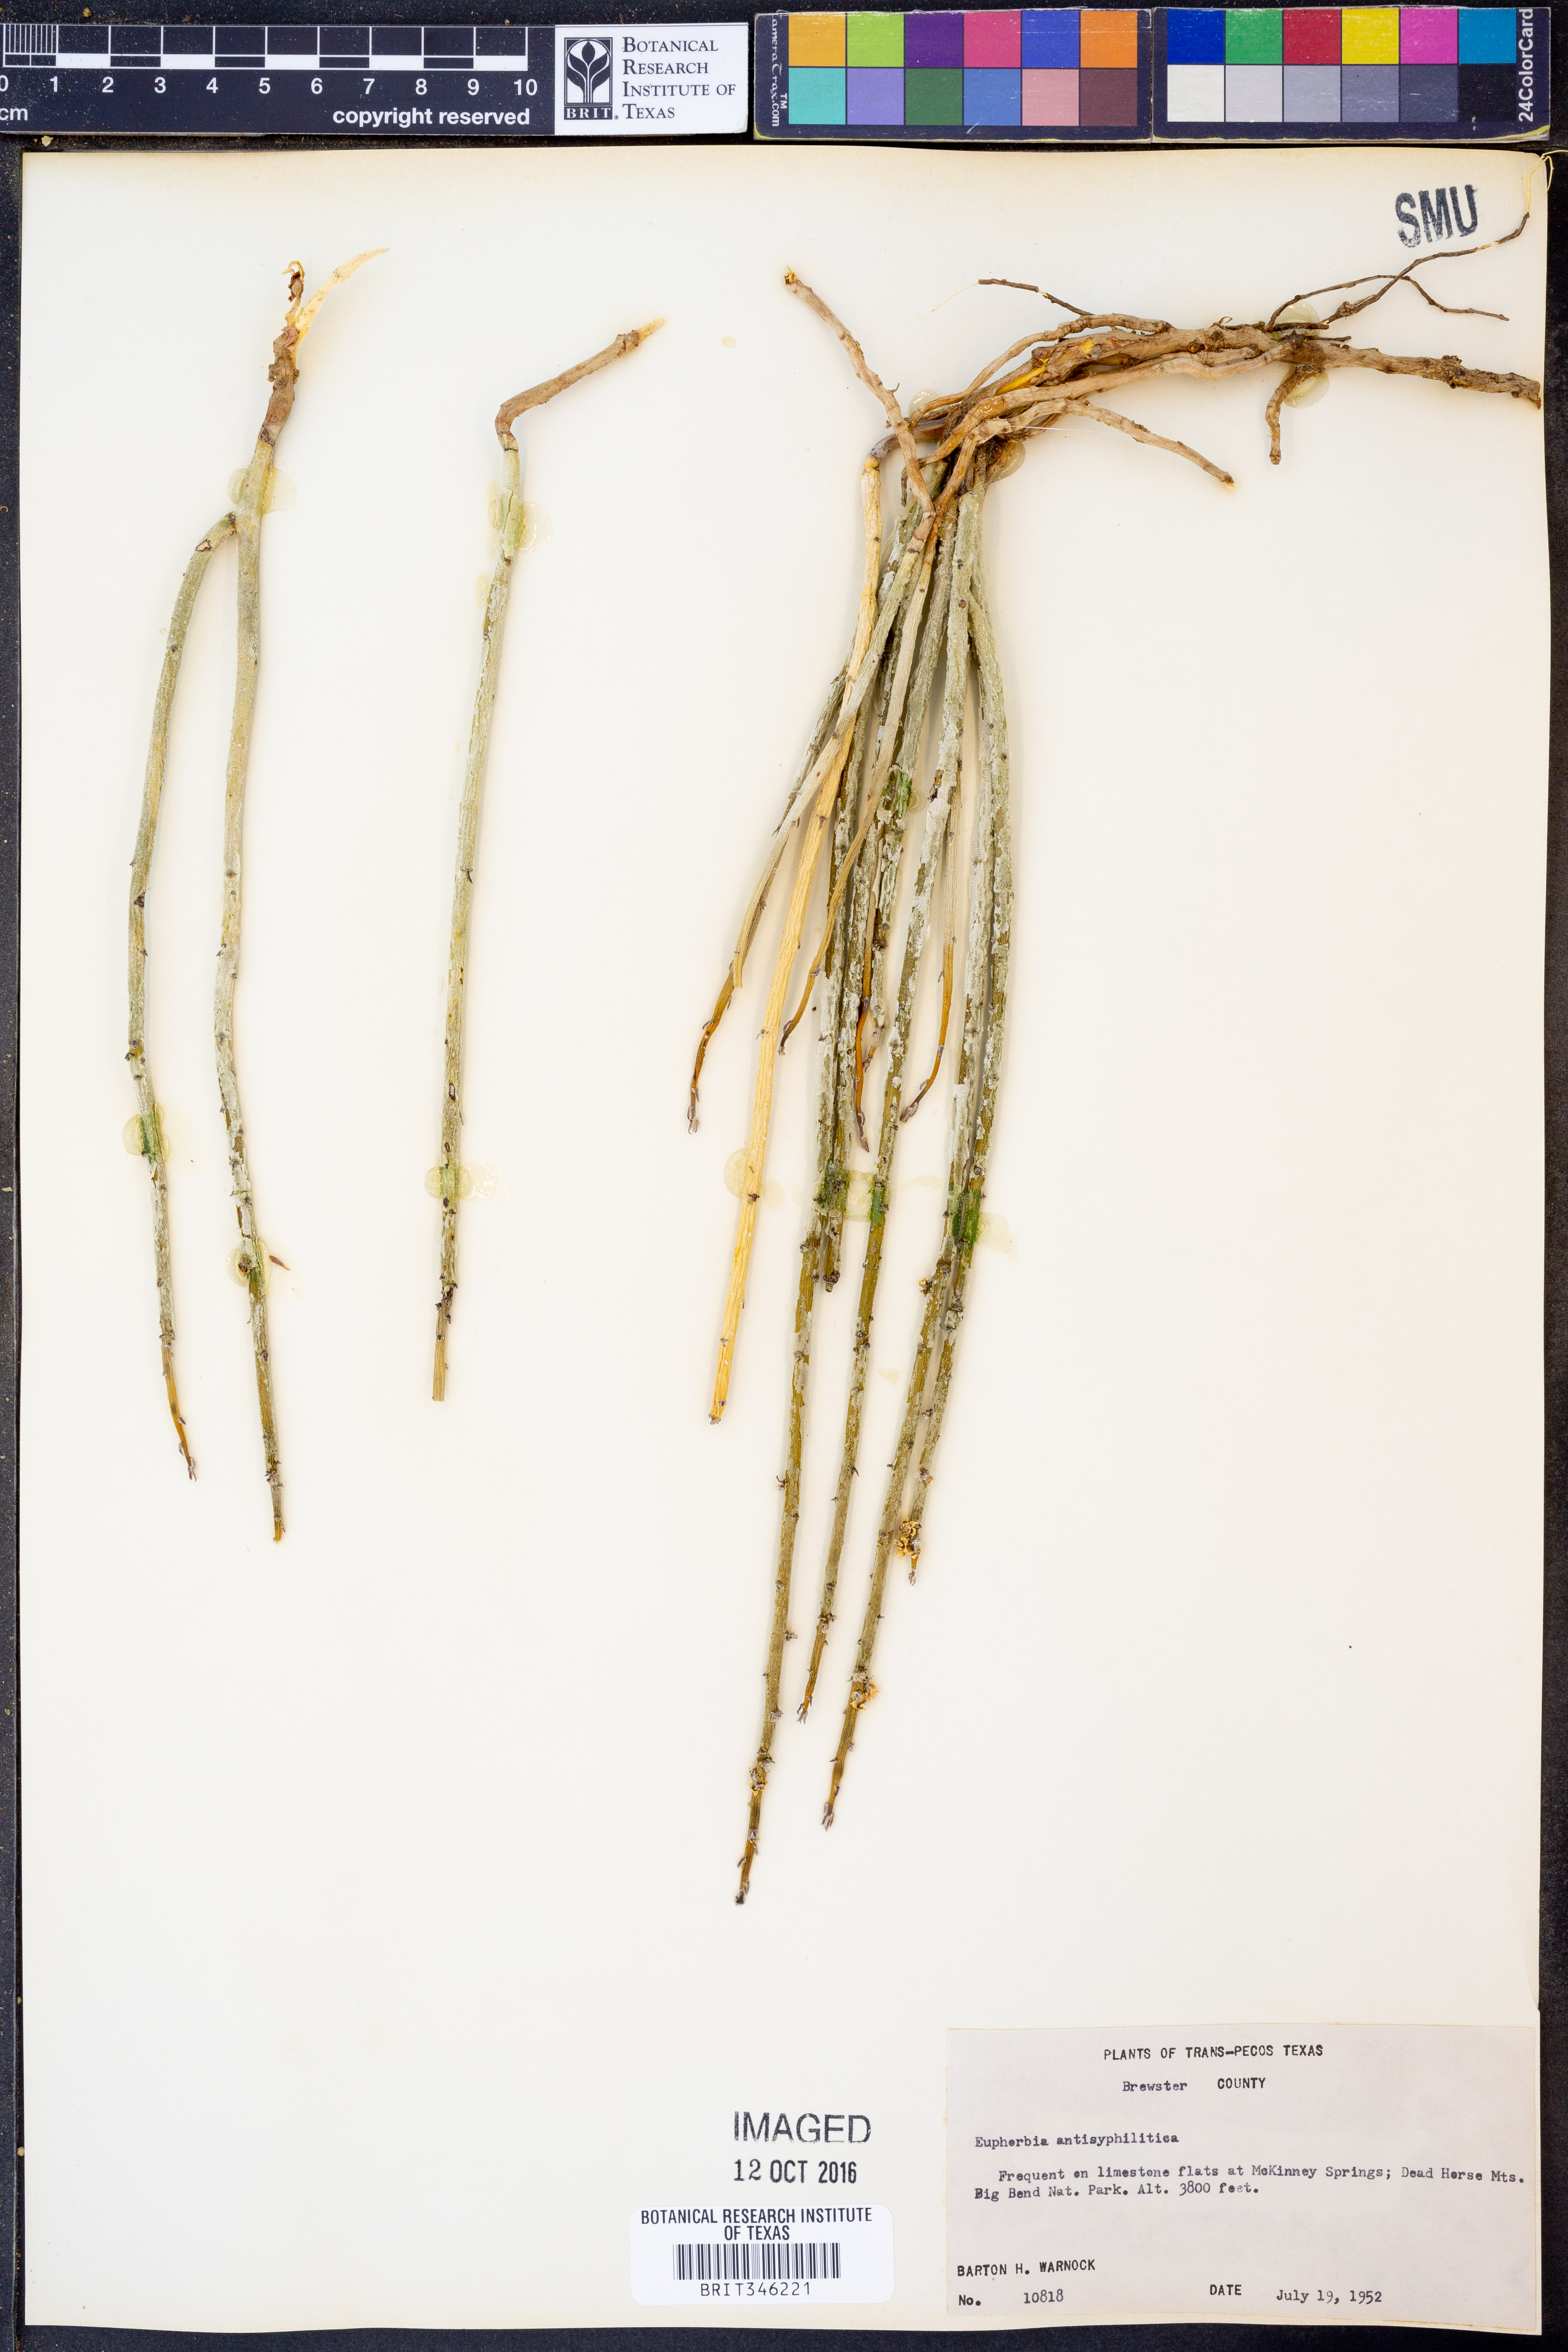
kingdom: Plantae
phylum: Tracheophyta
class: Magnoliopsida
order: Malpighiales
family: Euphorbiaceae
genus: Euphorbia
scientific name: Euphorbia antisyphilitica
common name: Candelilla
